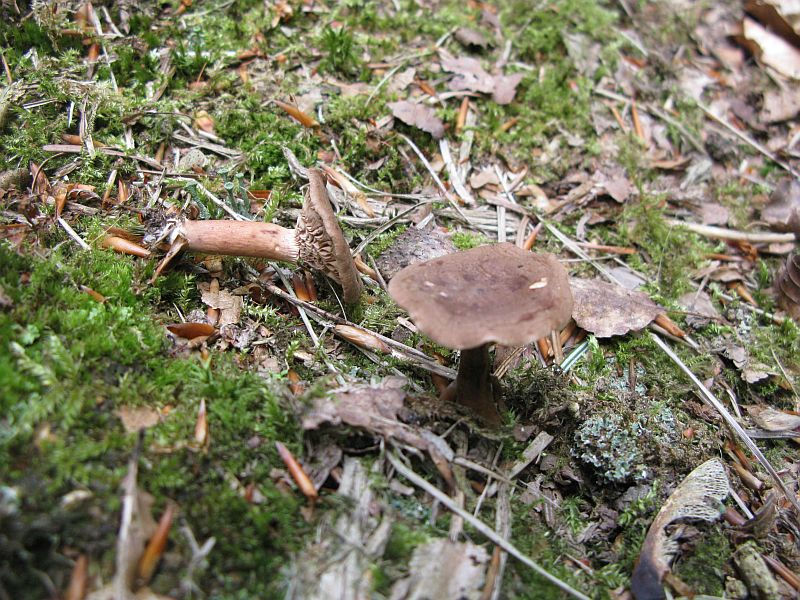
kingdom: Fungi
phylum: Basidiomycota
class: Agaricomycetes
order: Russulales
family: Russulaceae
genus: Lactarius
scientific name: Lactarius rufus
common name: rødbrun mælkehat
